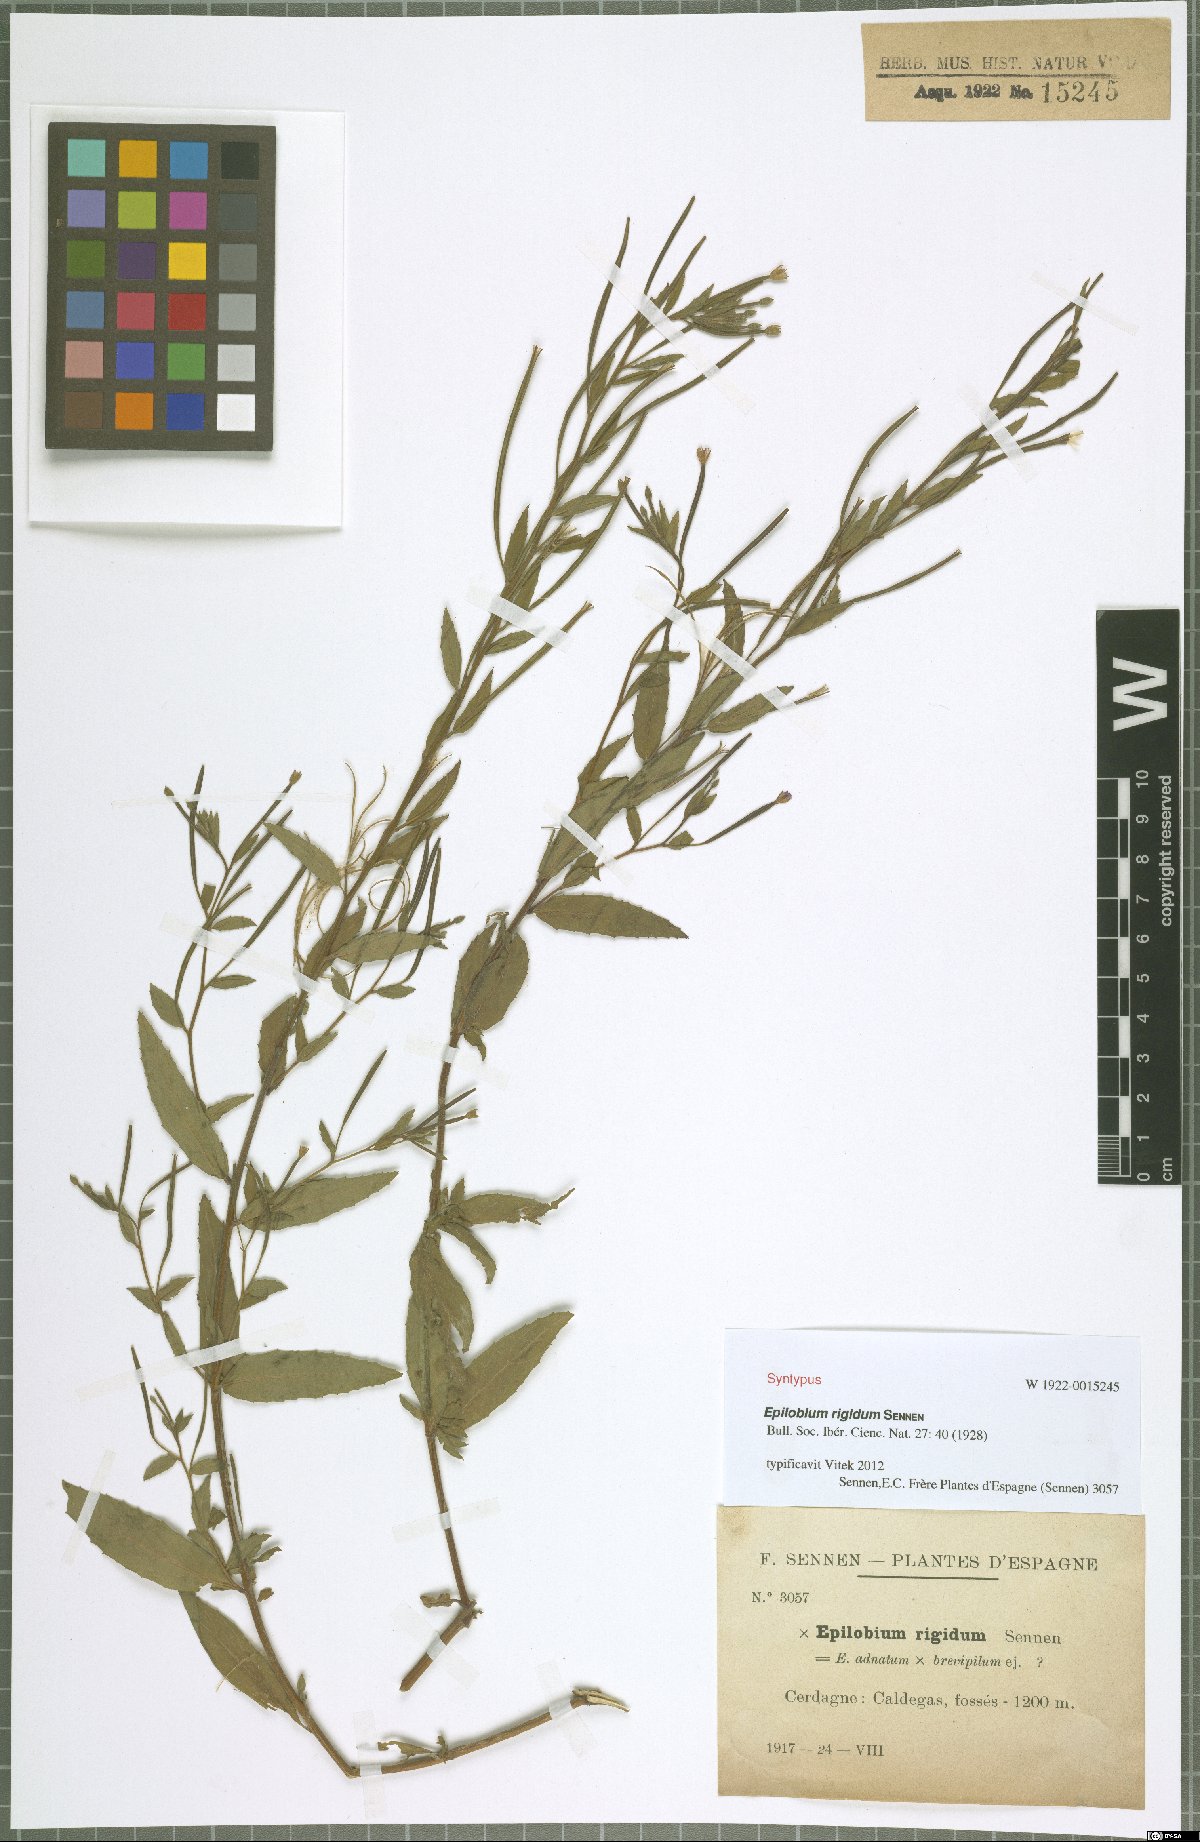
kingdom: Plantae
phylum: Tracheophyta
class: Magnoliopsida
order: Myrtales
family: Onagraceae
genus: Epilobium
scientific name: Epilobium rigidum
